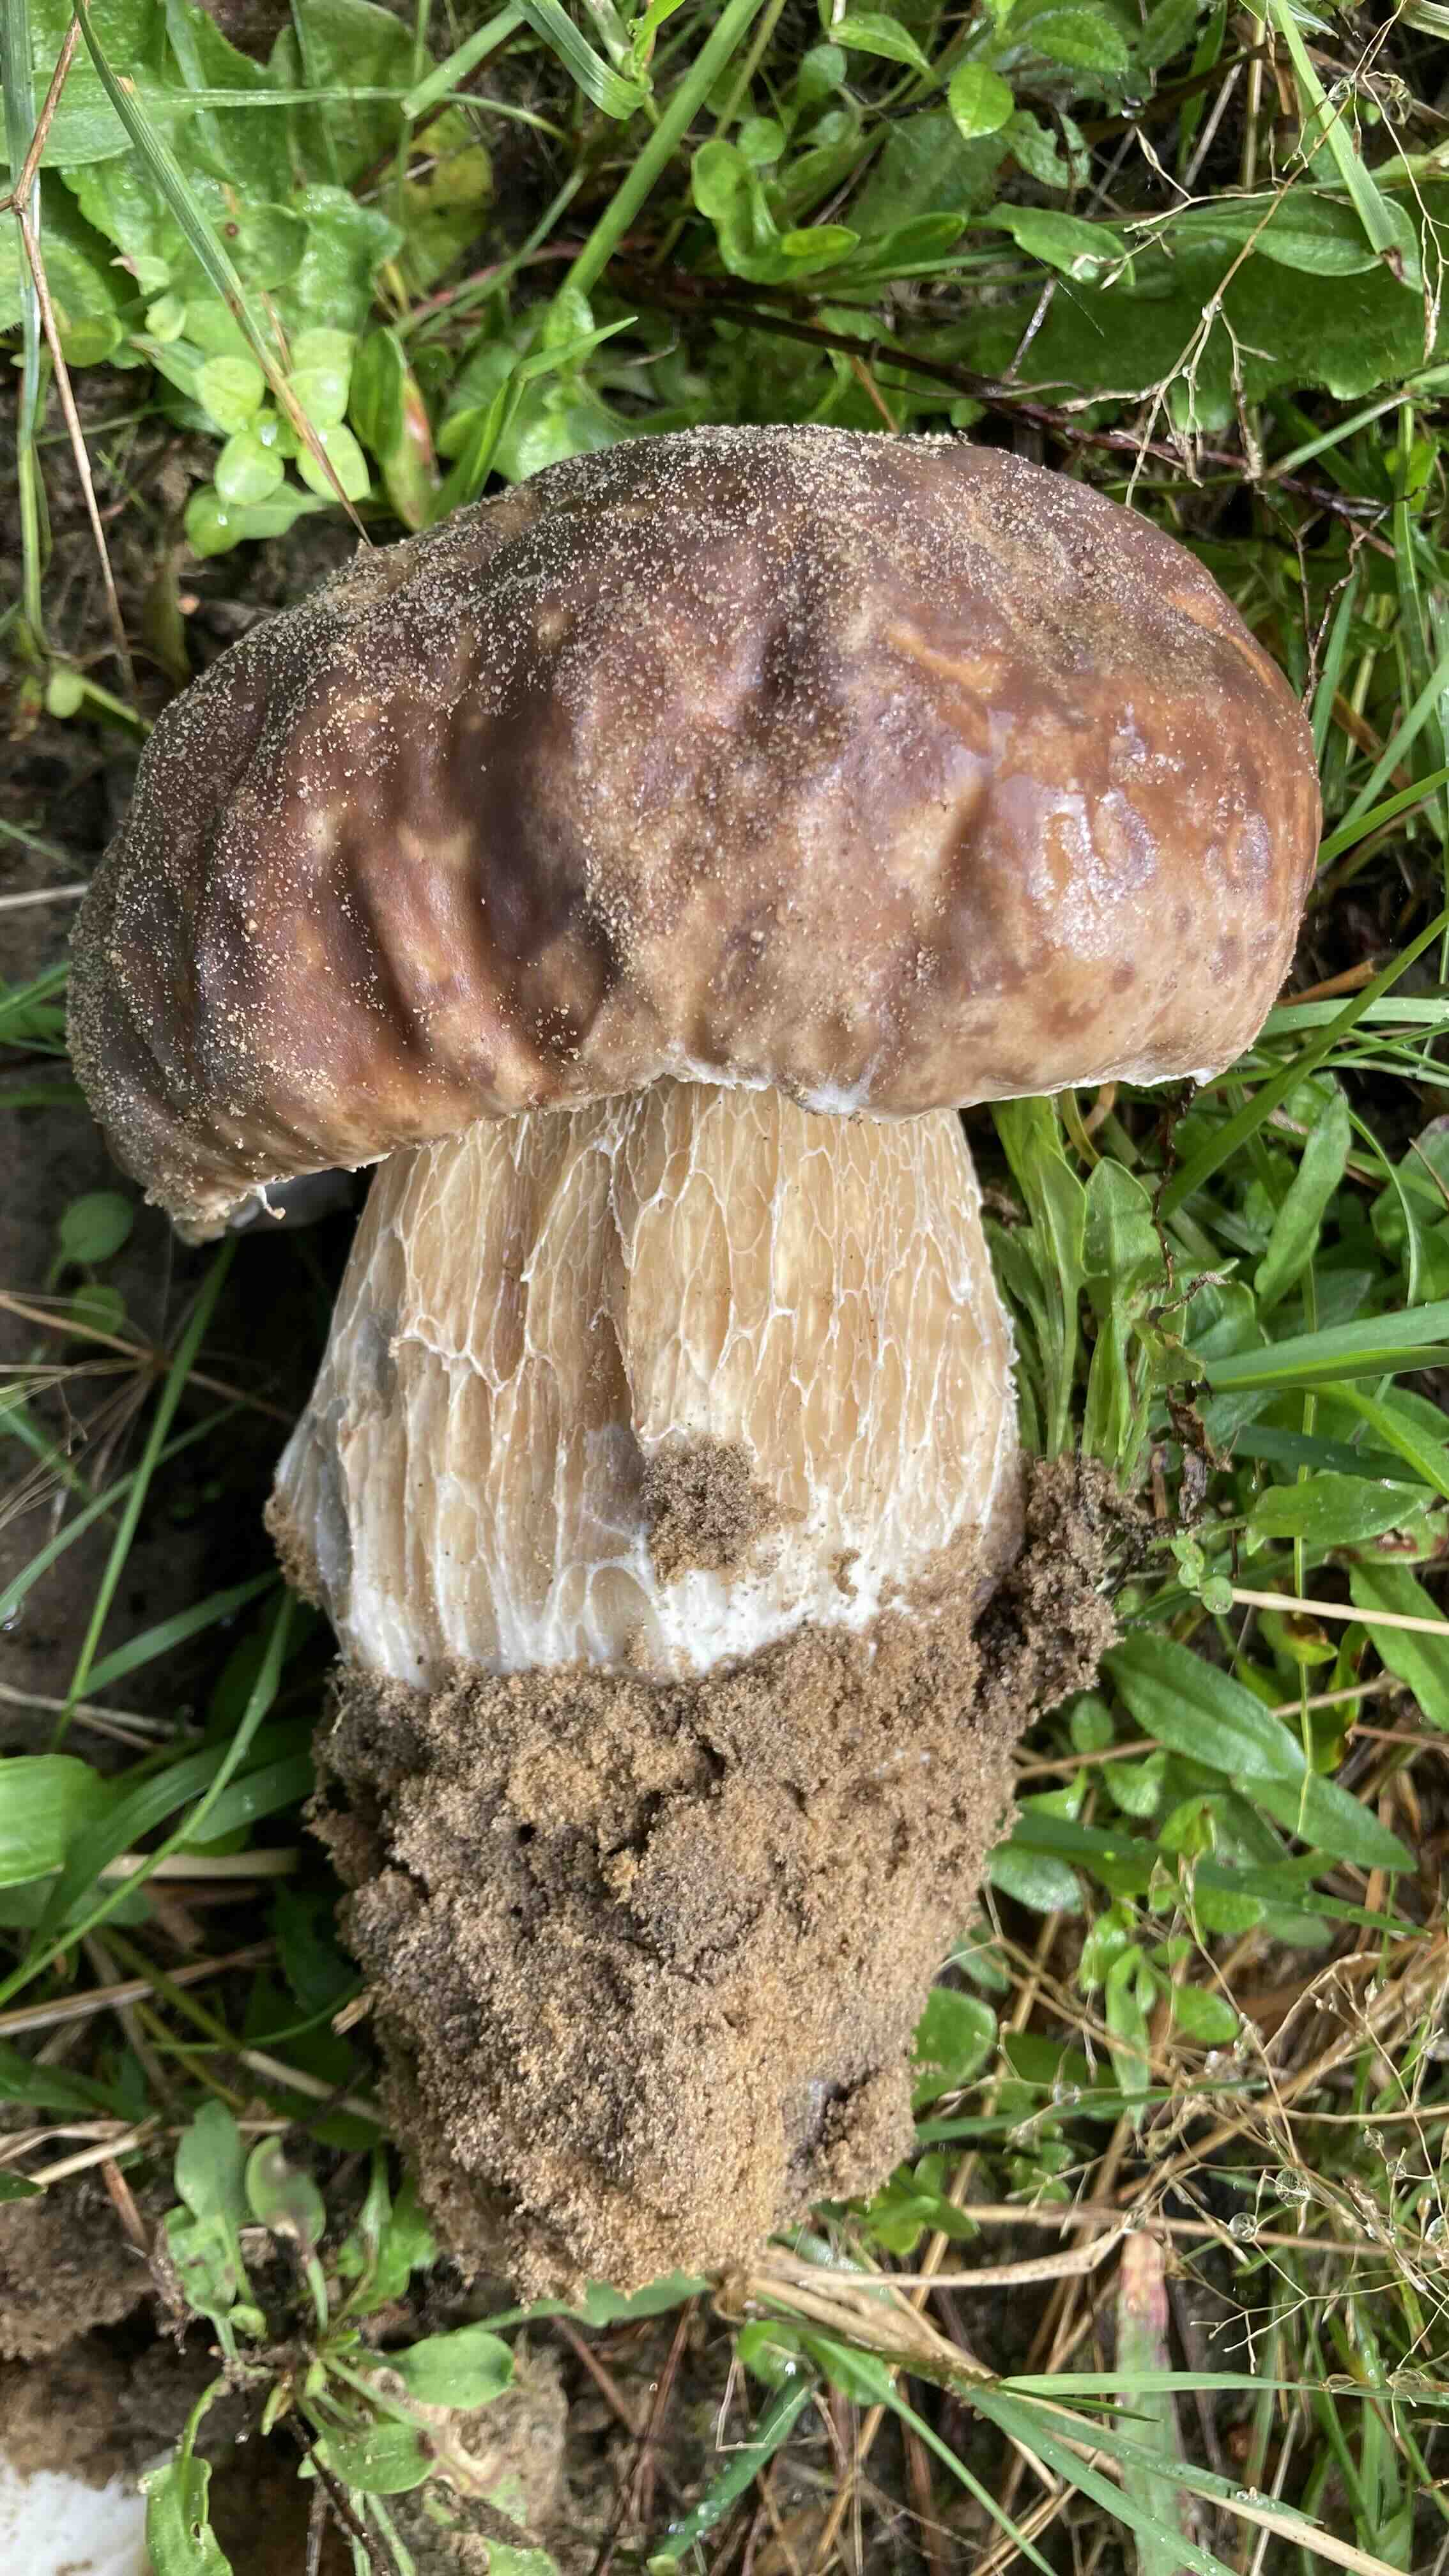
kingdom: Fungi
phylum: Basidiomycota
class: Agaricomycetes
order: Boletales
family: Boletaceae
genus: Boletus
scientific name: Boletus edulis
